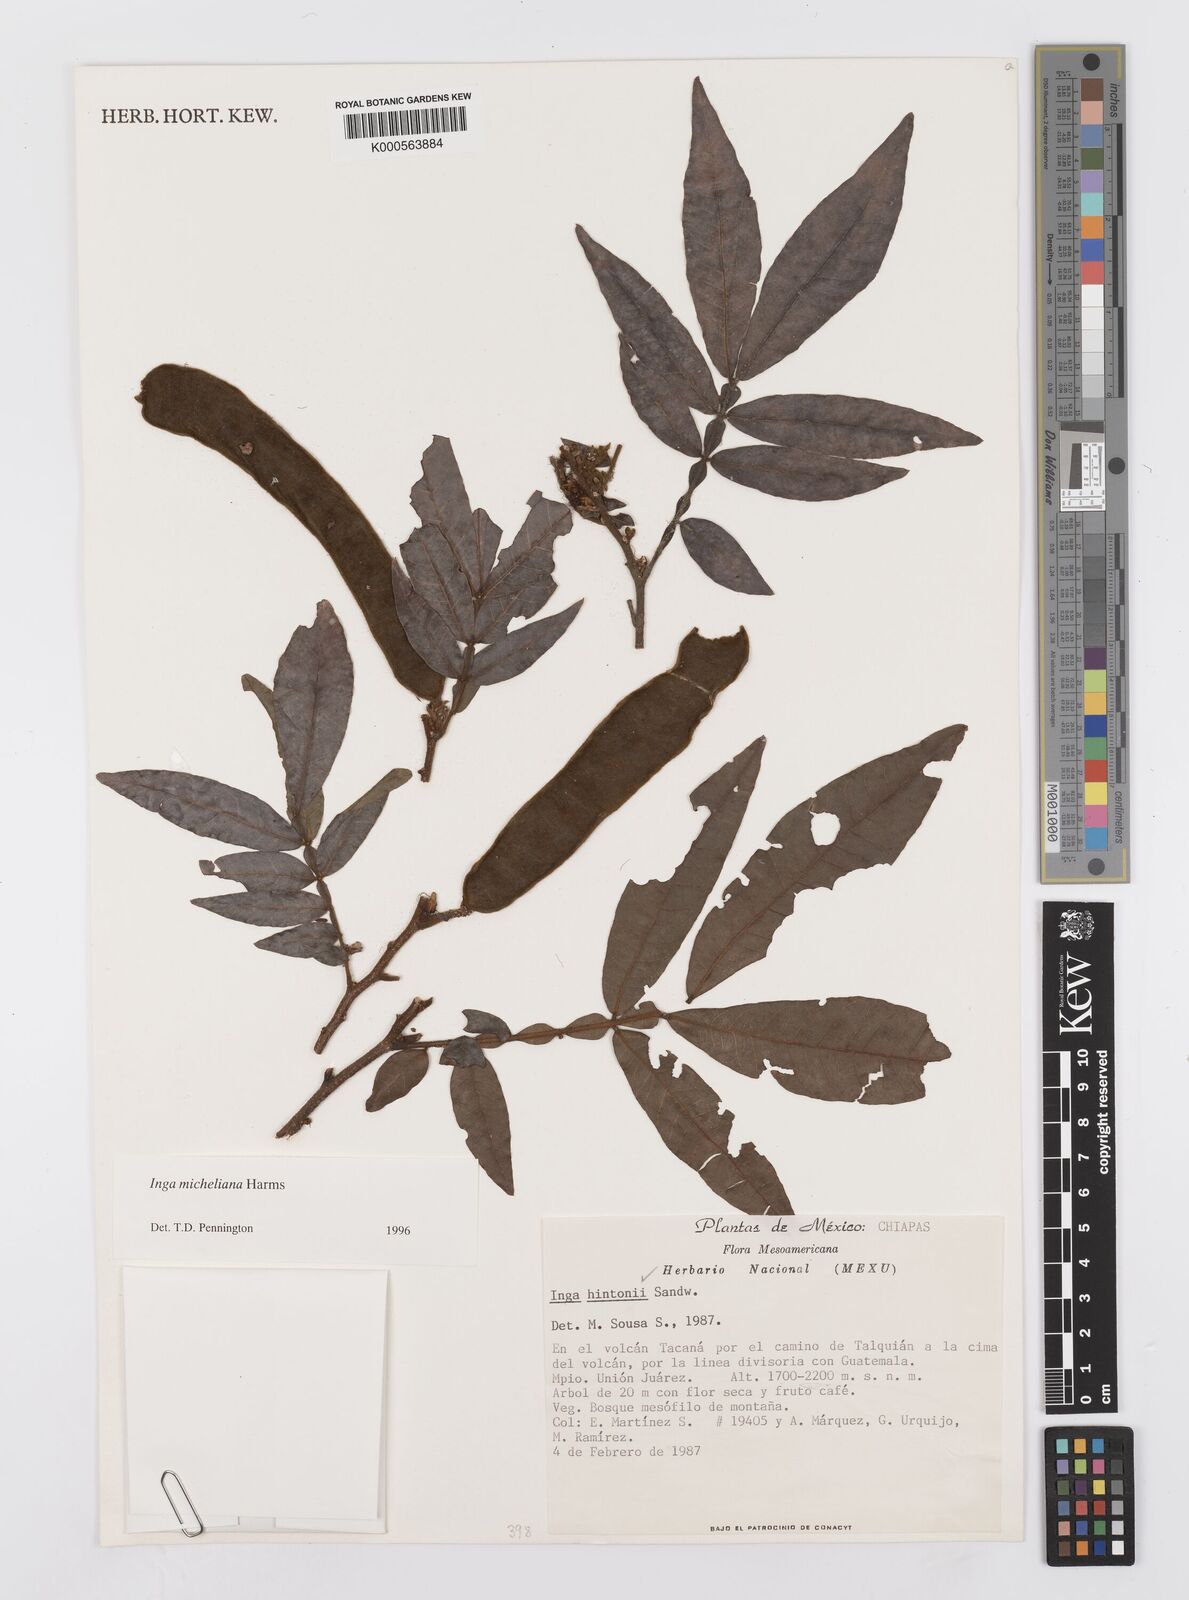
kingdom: Plantae
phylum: Tracheophyta
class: Magnoliopsida
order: Fabales
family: Fabaceae
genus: Inga
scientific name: Inga flexuosa
